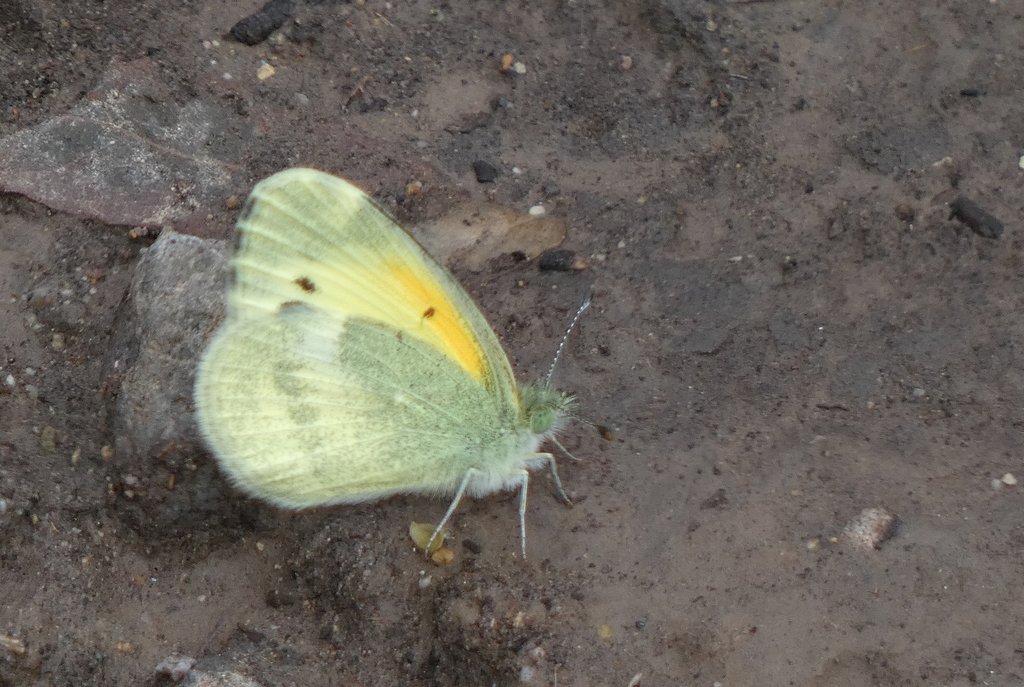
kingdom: Animalia
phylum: Arthropoda
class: Insecta
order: Lepidoptera
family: Pieridae
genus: Nathalis
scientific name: Nathalis iole
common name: Dainty Sulphur
